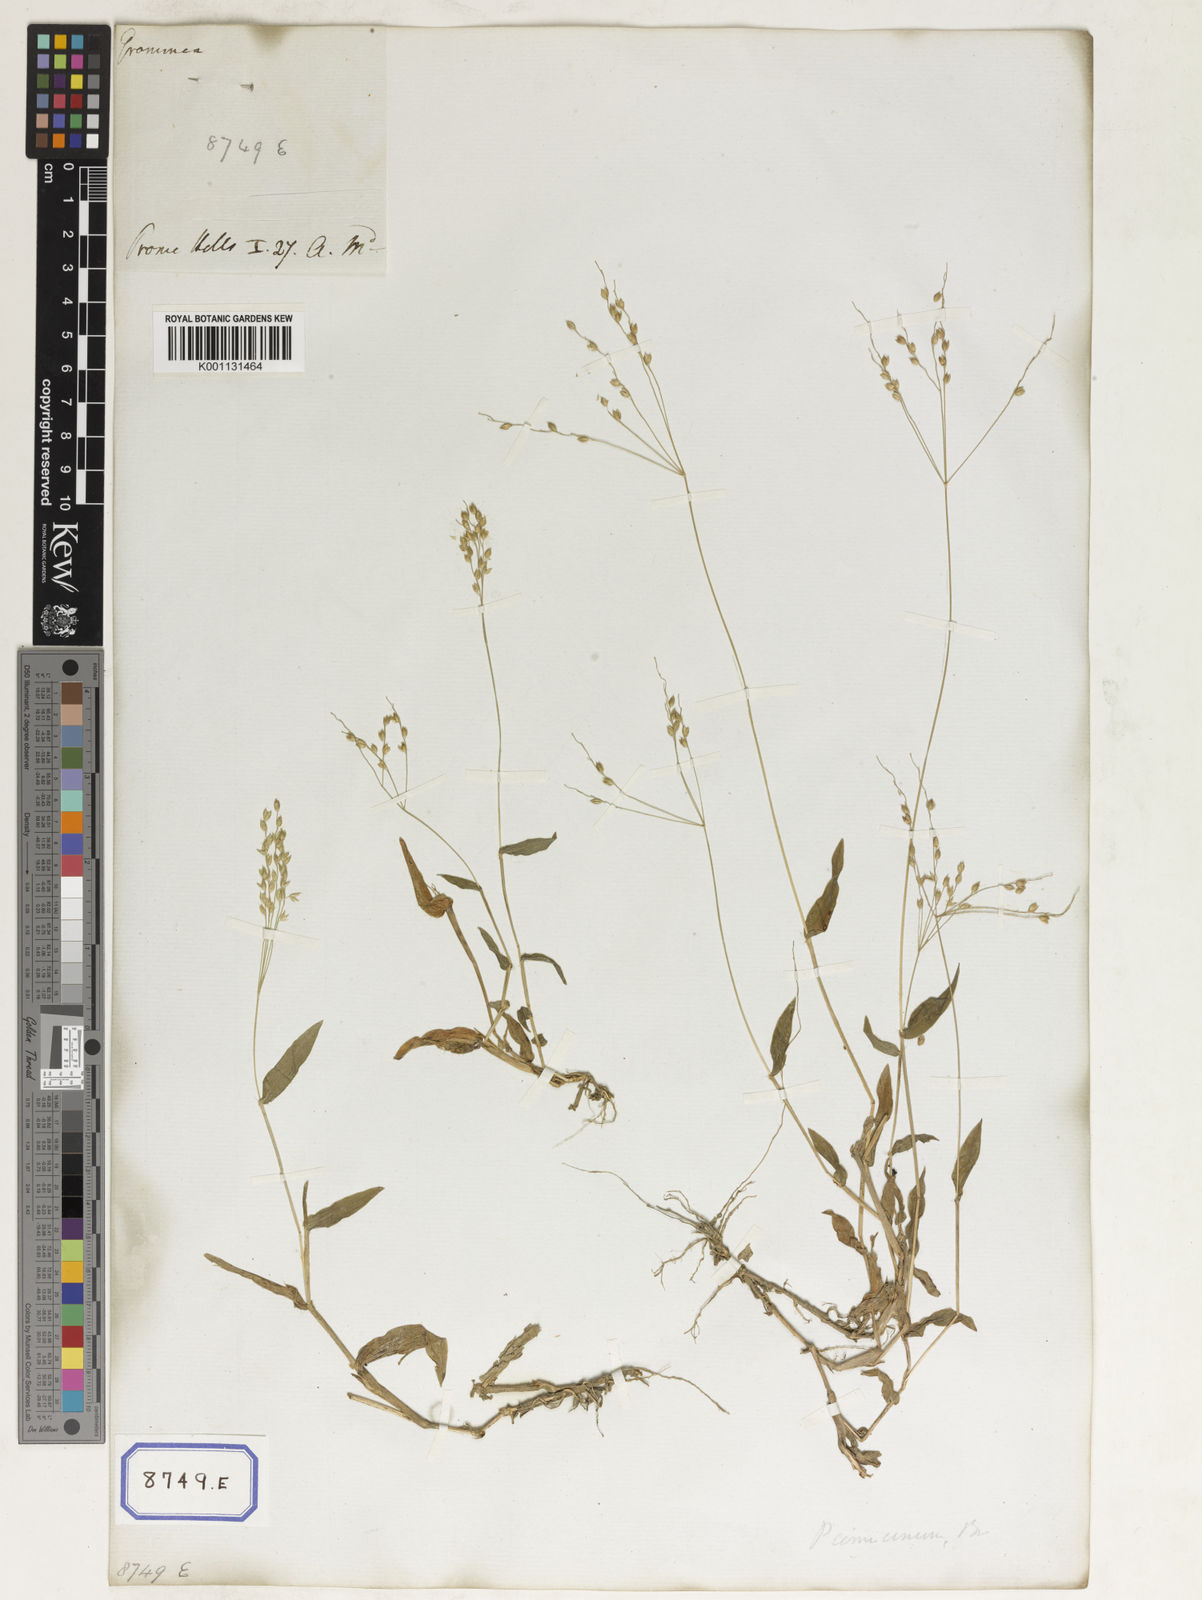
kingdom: Plantae
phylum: Tracheophyta
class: Liliopsida
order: Poales
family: Poaceae
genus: Alloteropsis
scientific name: Alloteropsis
